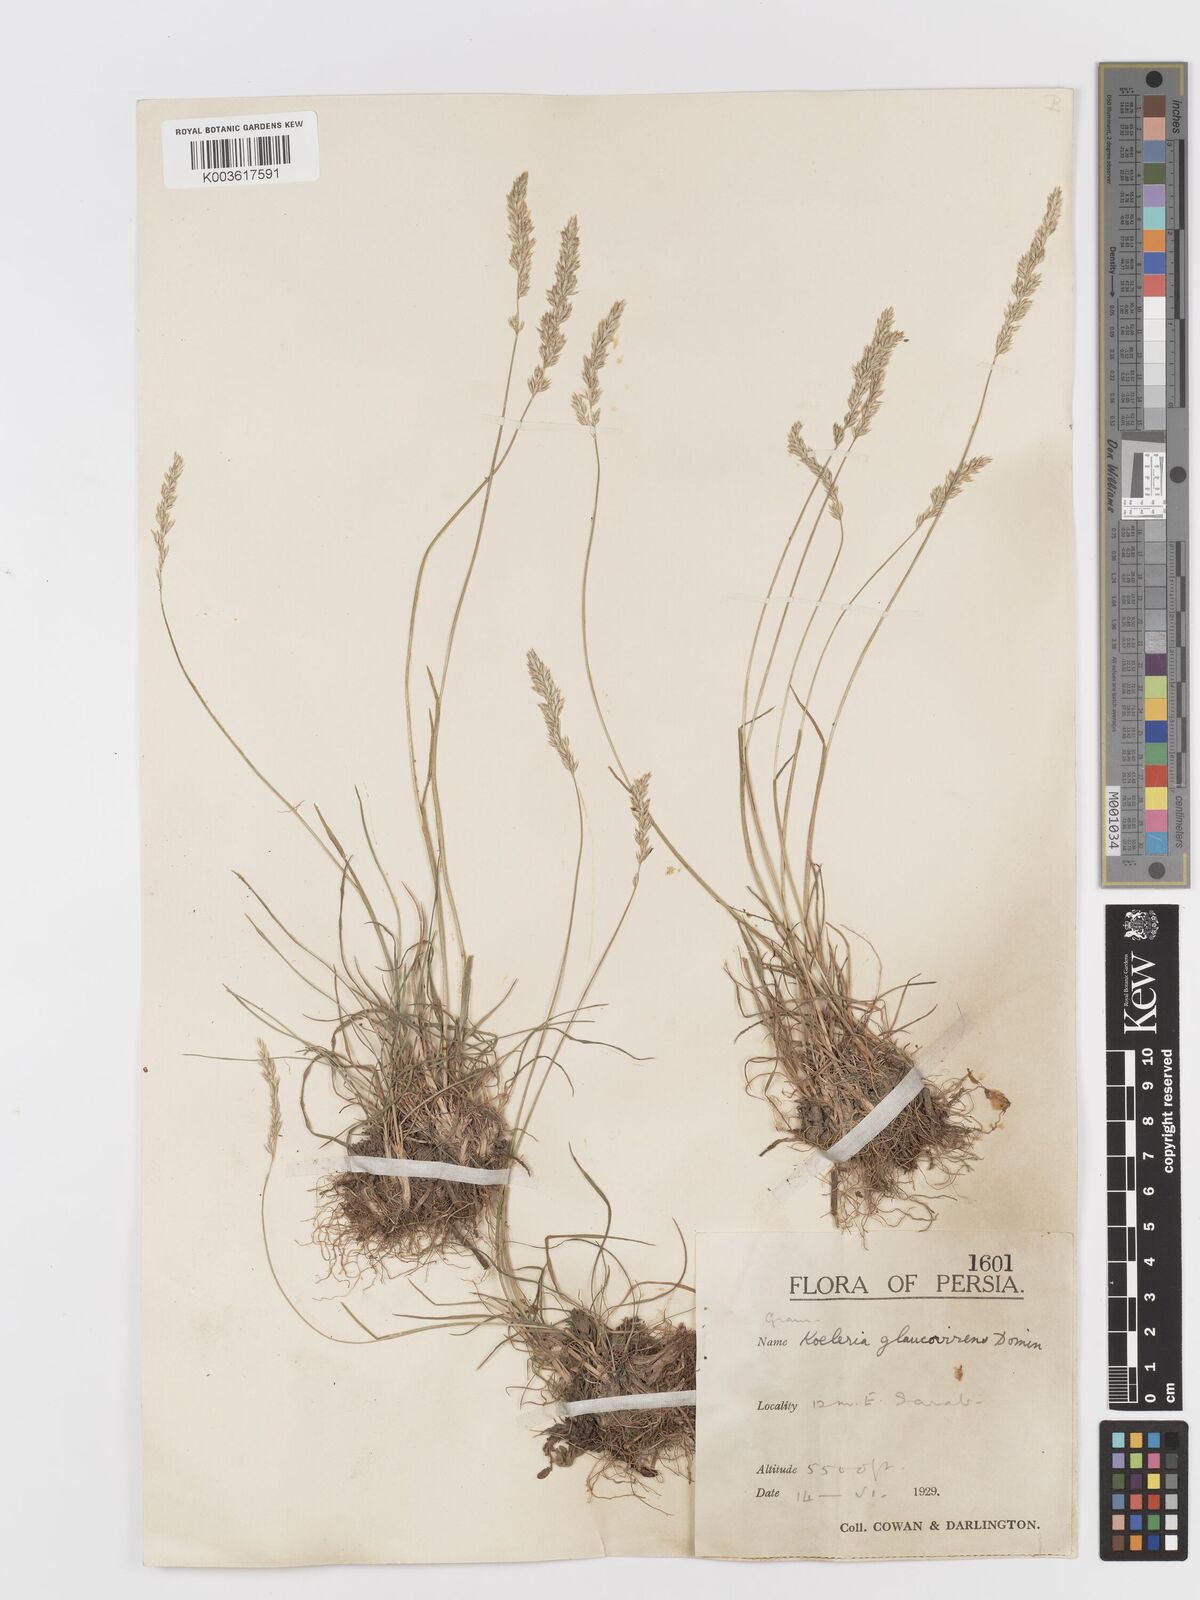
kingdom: Plantae
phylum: Tracheophyta
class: Liliopsida
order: Poales
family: Poaceae
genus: Koeleria
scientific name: Koeleria macrantha
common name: Crested hair-grass
